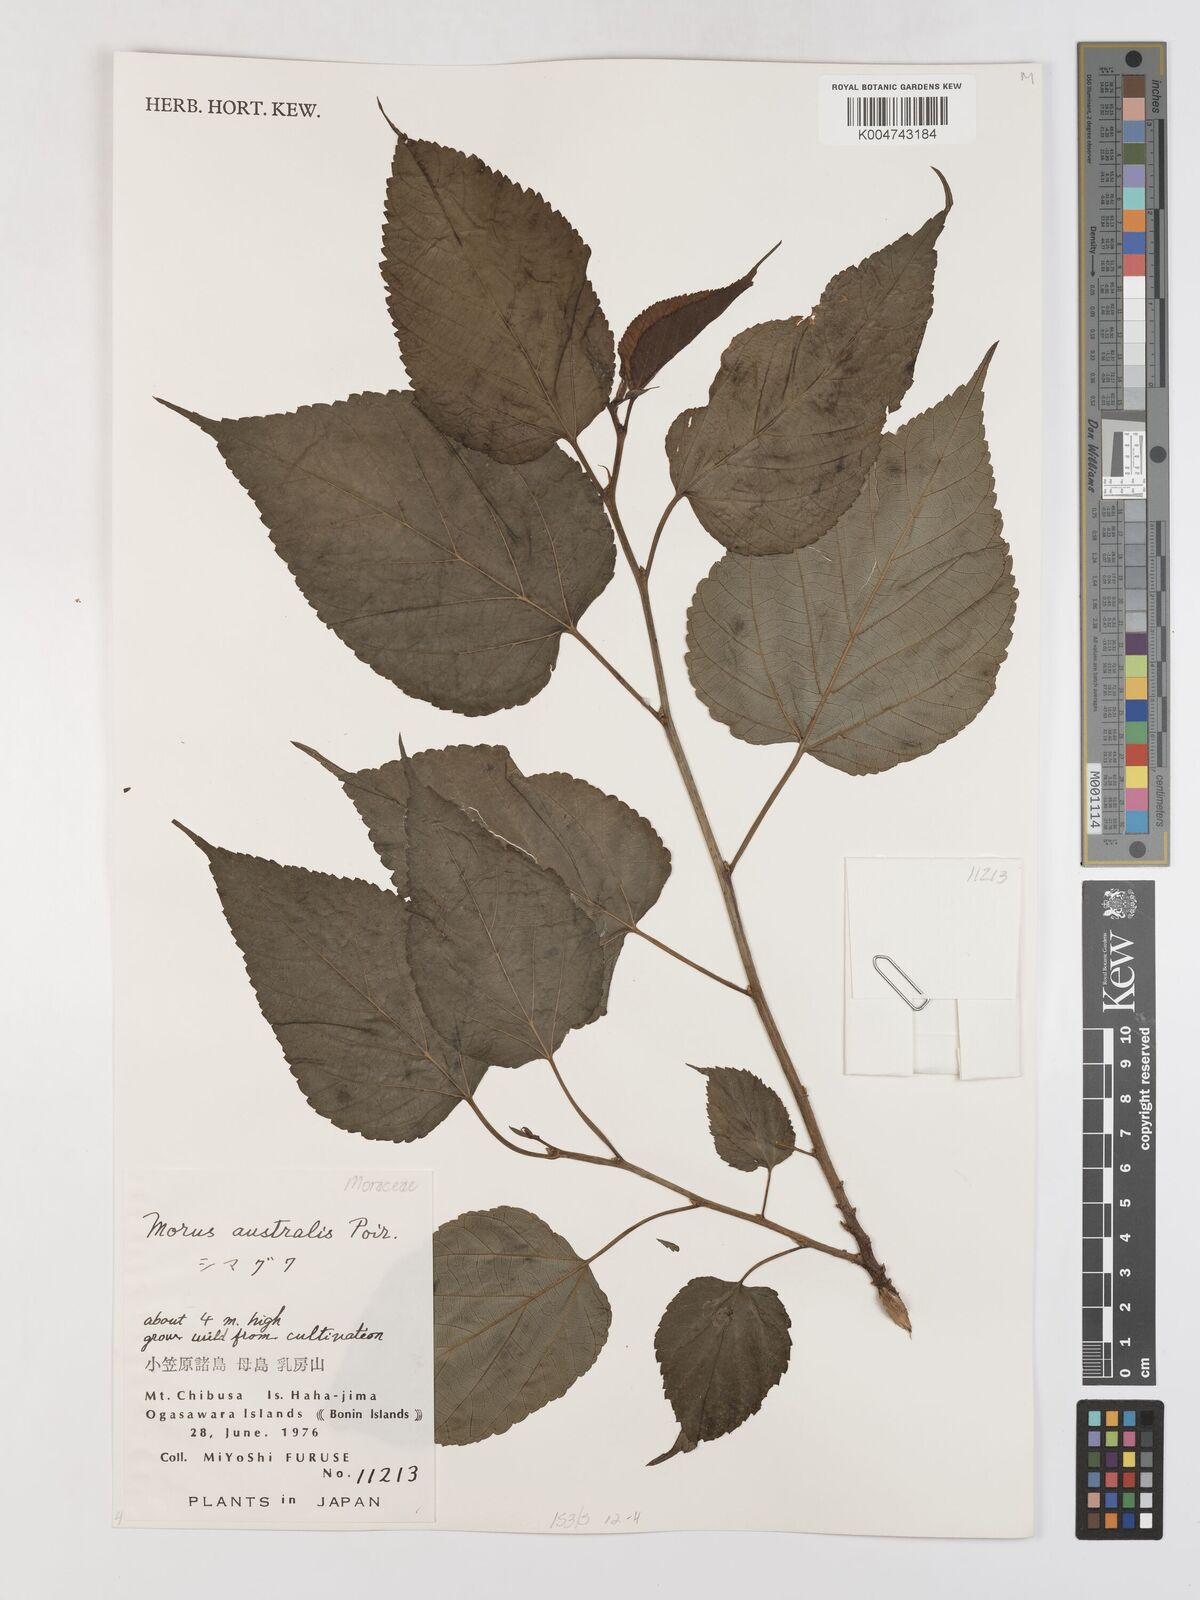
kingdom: Plantae
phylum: Tracheophyta
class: Magnoliopsida
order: Rosales
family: Moraceae
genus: Broussonetia
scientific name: Broussonetia papyrifera
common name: Paper mulberry
